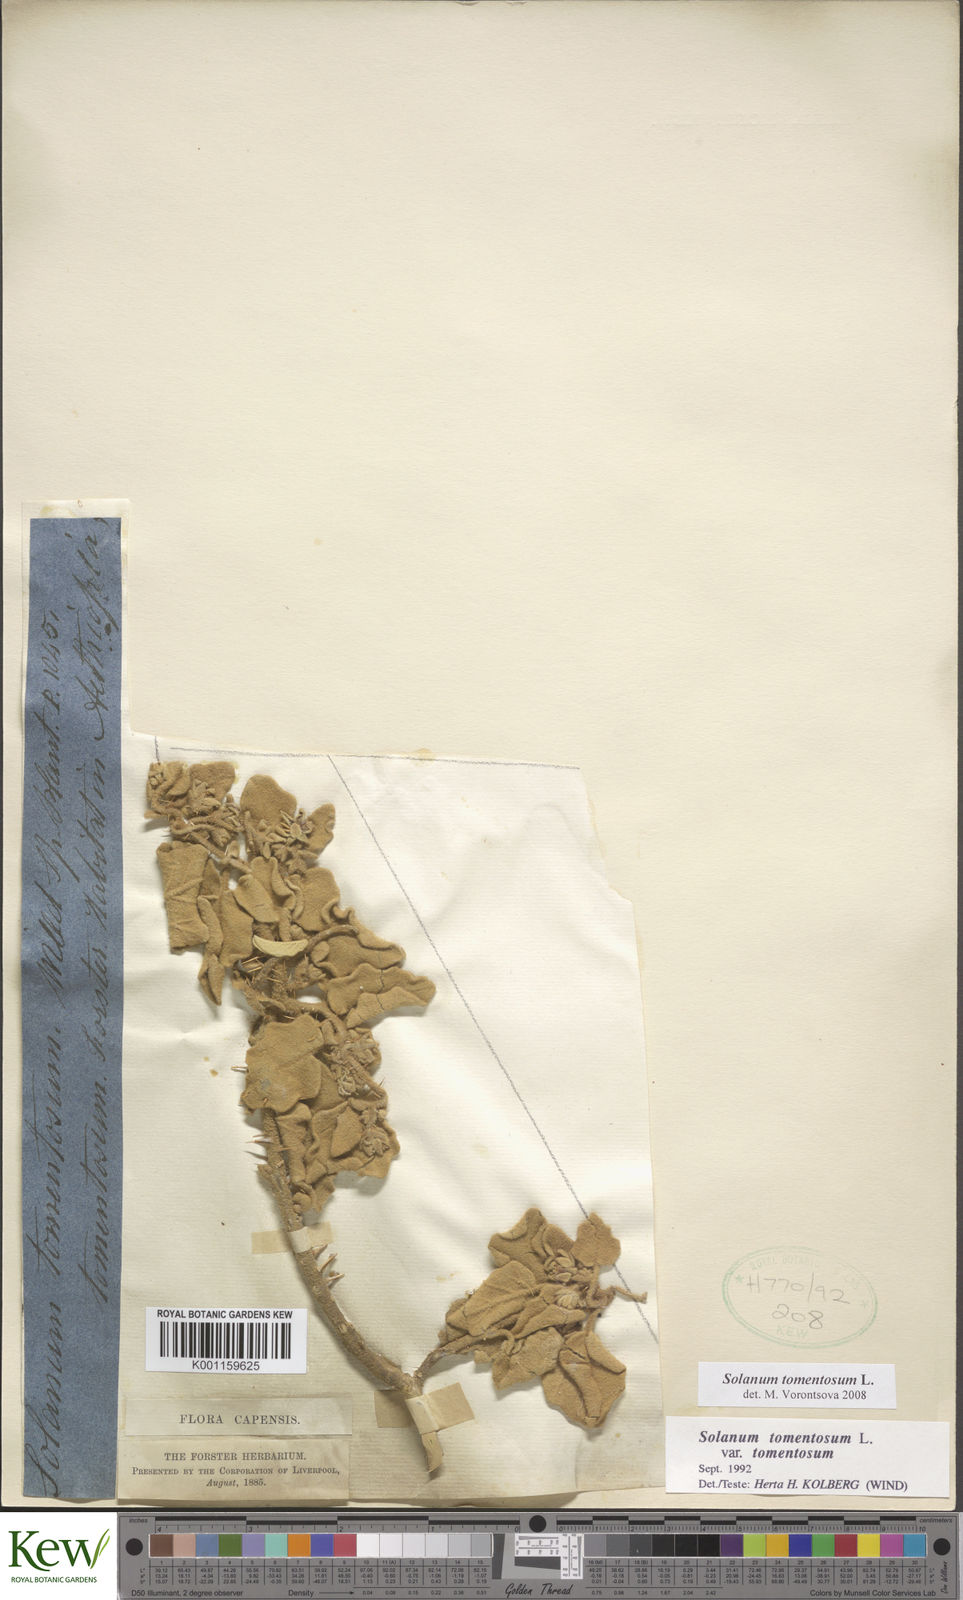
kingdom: Plantae
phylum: Tracheophyta
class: Magnoliopsida
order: Solanales
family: Solanaceae
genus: Solanum
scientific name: Solanum tomentosum
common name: Wild aubergine
